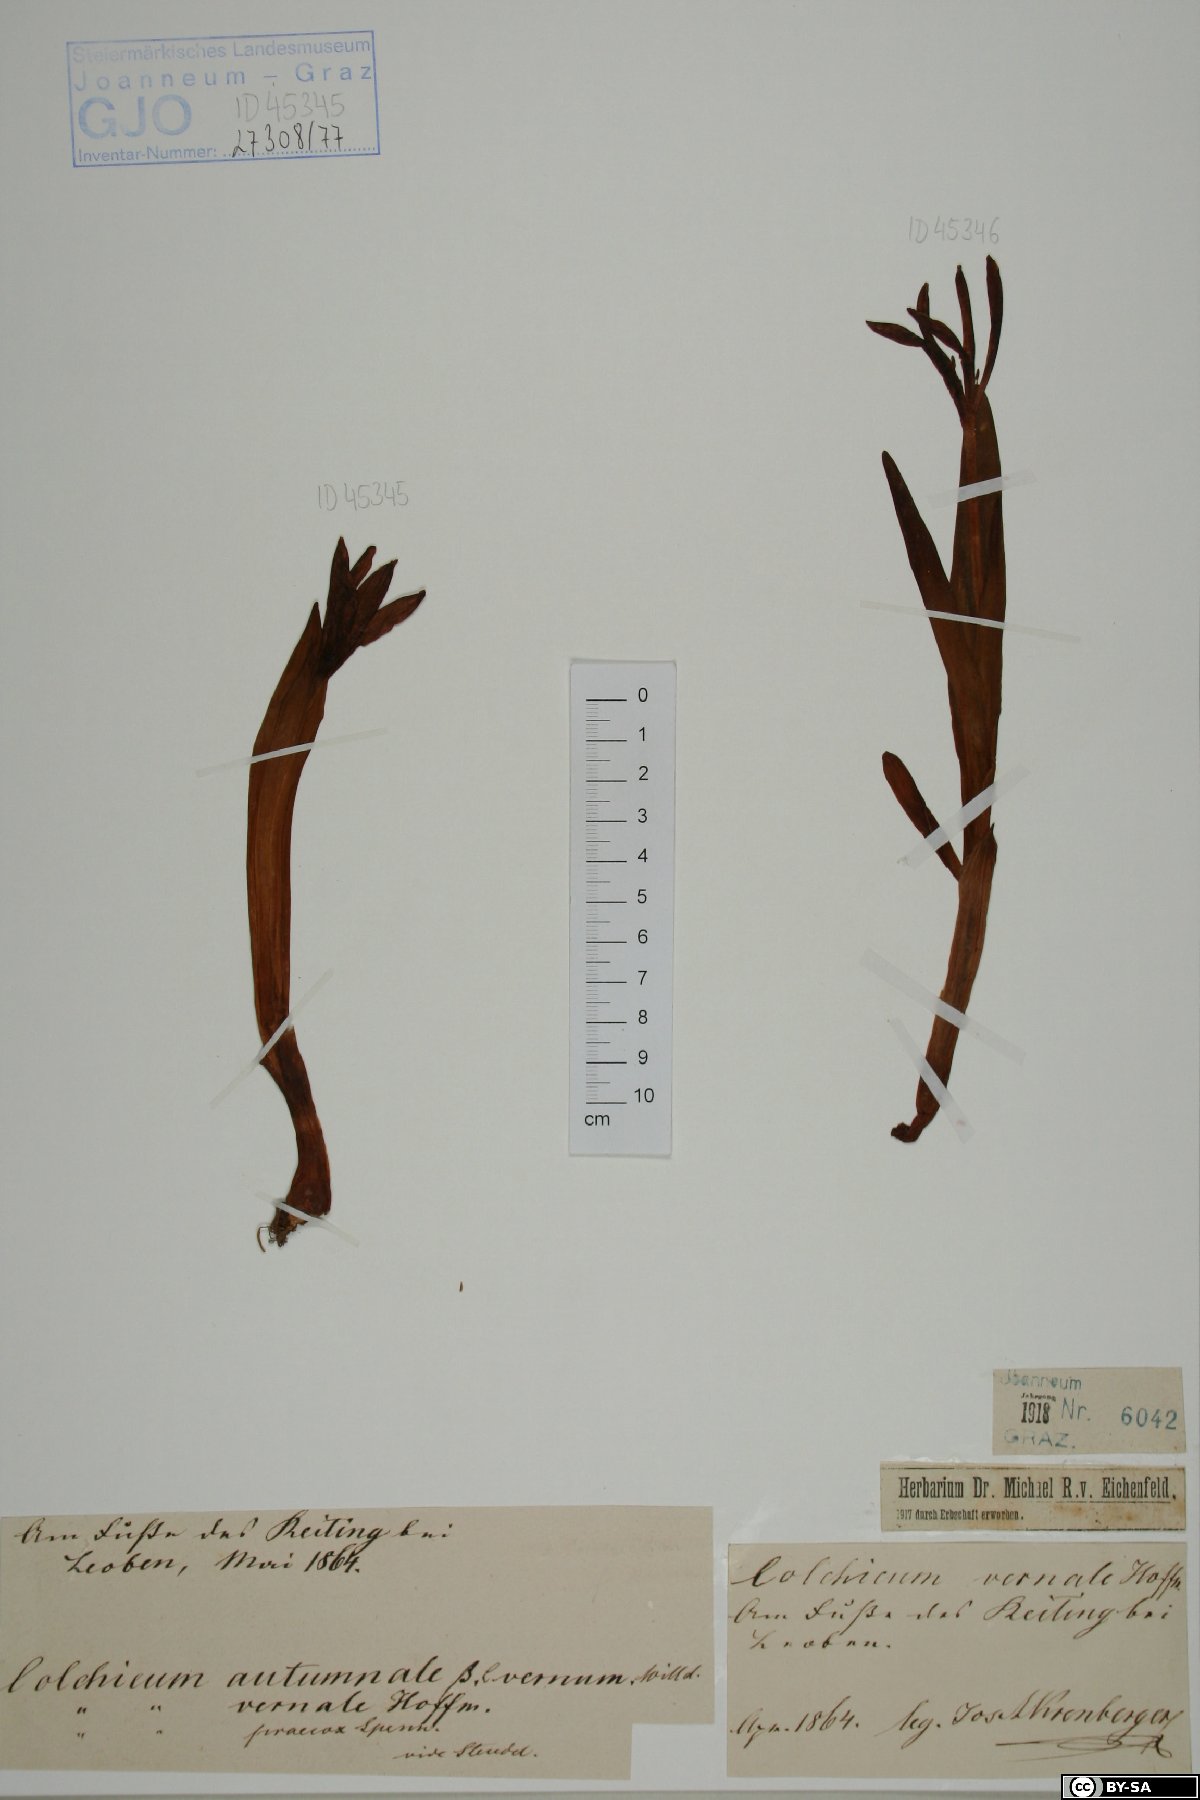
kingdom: Plantae
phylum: Tracheophyta
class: Liliopsida
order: Liliales
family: Colchicaceae
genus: Colchicum
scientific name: Colchicum autumnale
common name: Autumn crocus
